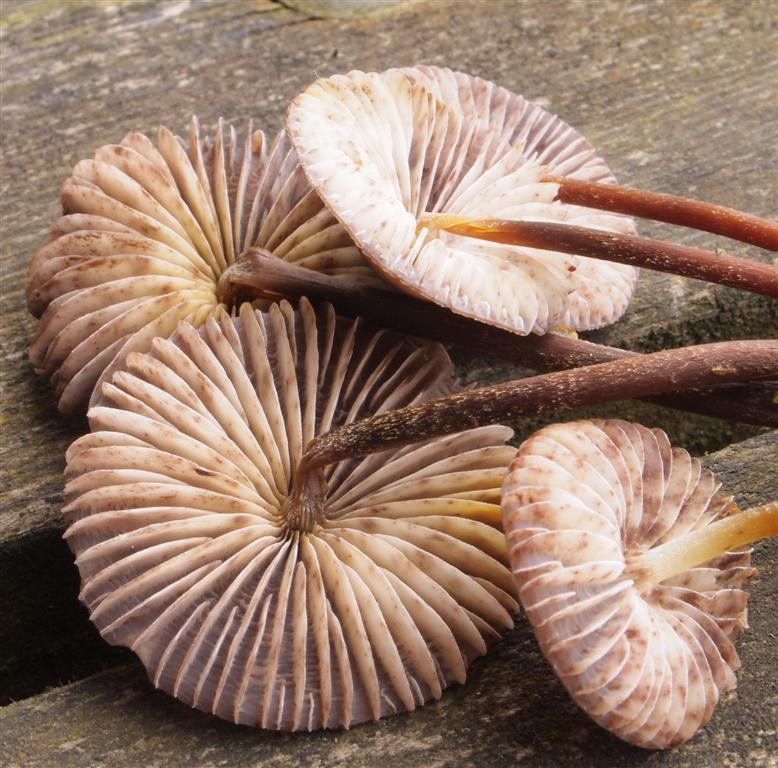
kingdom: Fungi
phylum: Basidiomycota
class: Agaricomycetes
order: Agaricales
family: Mycenaceae
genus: Mycena
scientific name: Mycena inclinata
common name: nikkende huesvamp
